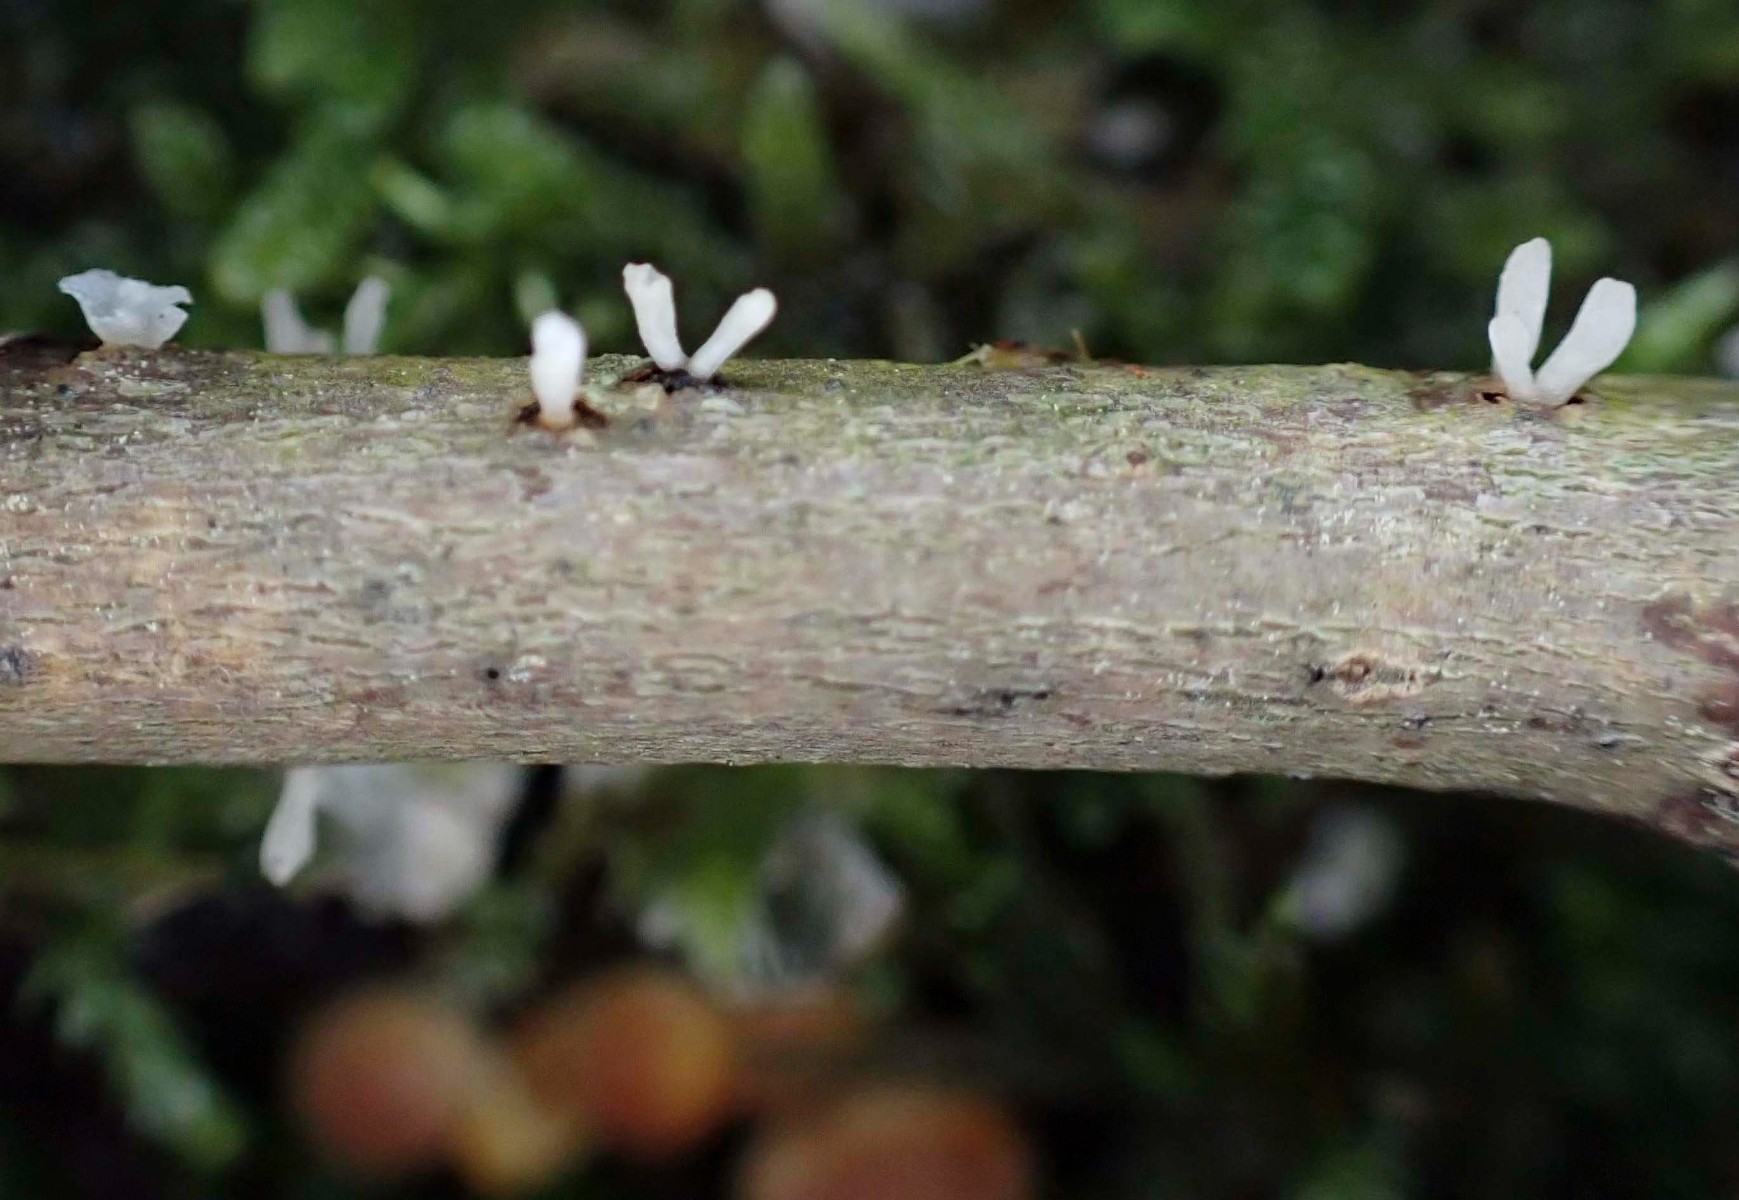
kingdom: Fungi
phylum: Basidiomycota
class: Agaricomycetes
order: Agaricales
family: Typhulaceae
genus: Typhula
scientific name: Typhula spathulata
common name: aske-trådkølle
